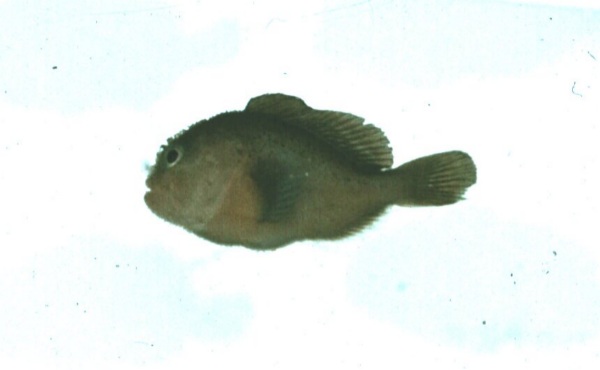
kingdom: Animalia
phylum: Chordata
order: Perciformes
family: Gobiidae
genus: Gobiodon
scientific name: Gobiodon unicolor
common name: Unicolor coralgoby
